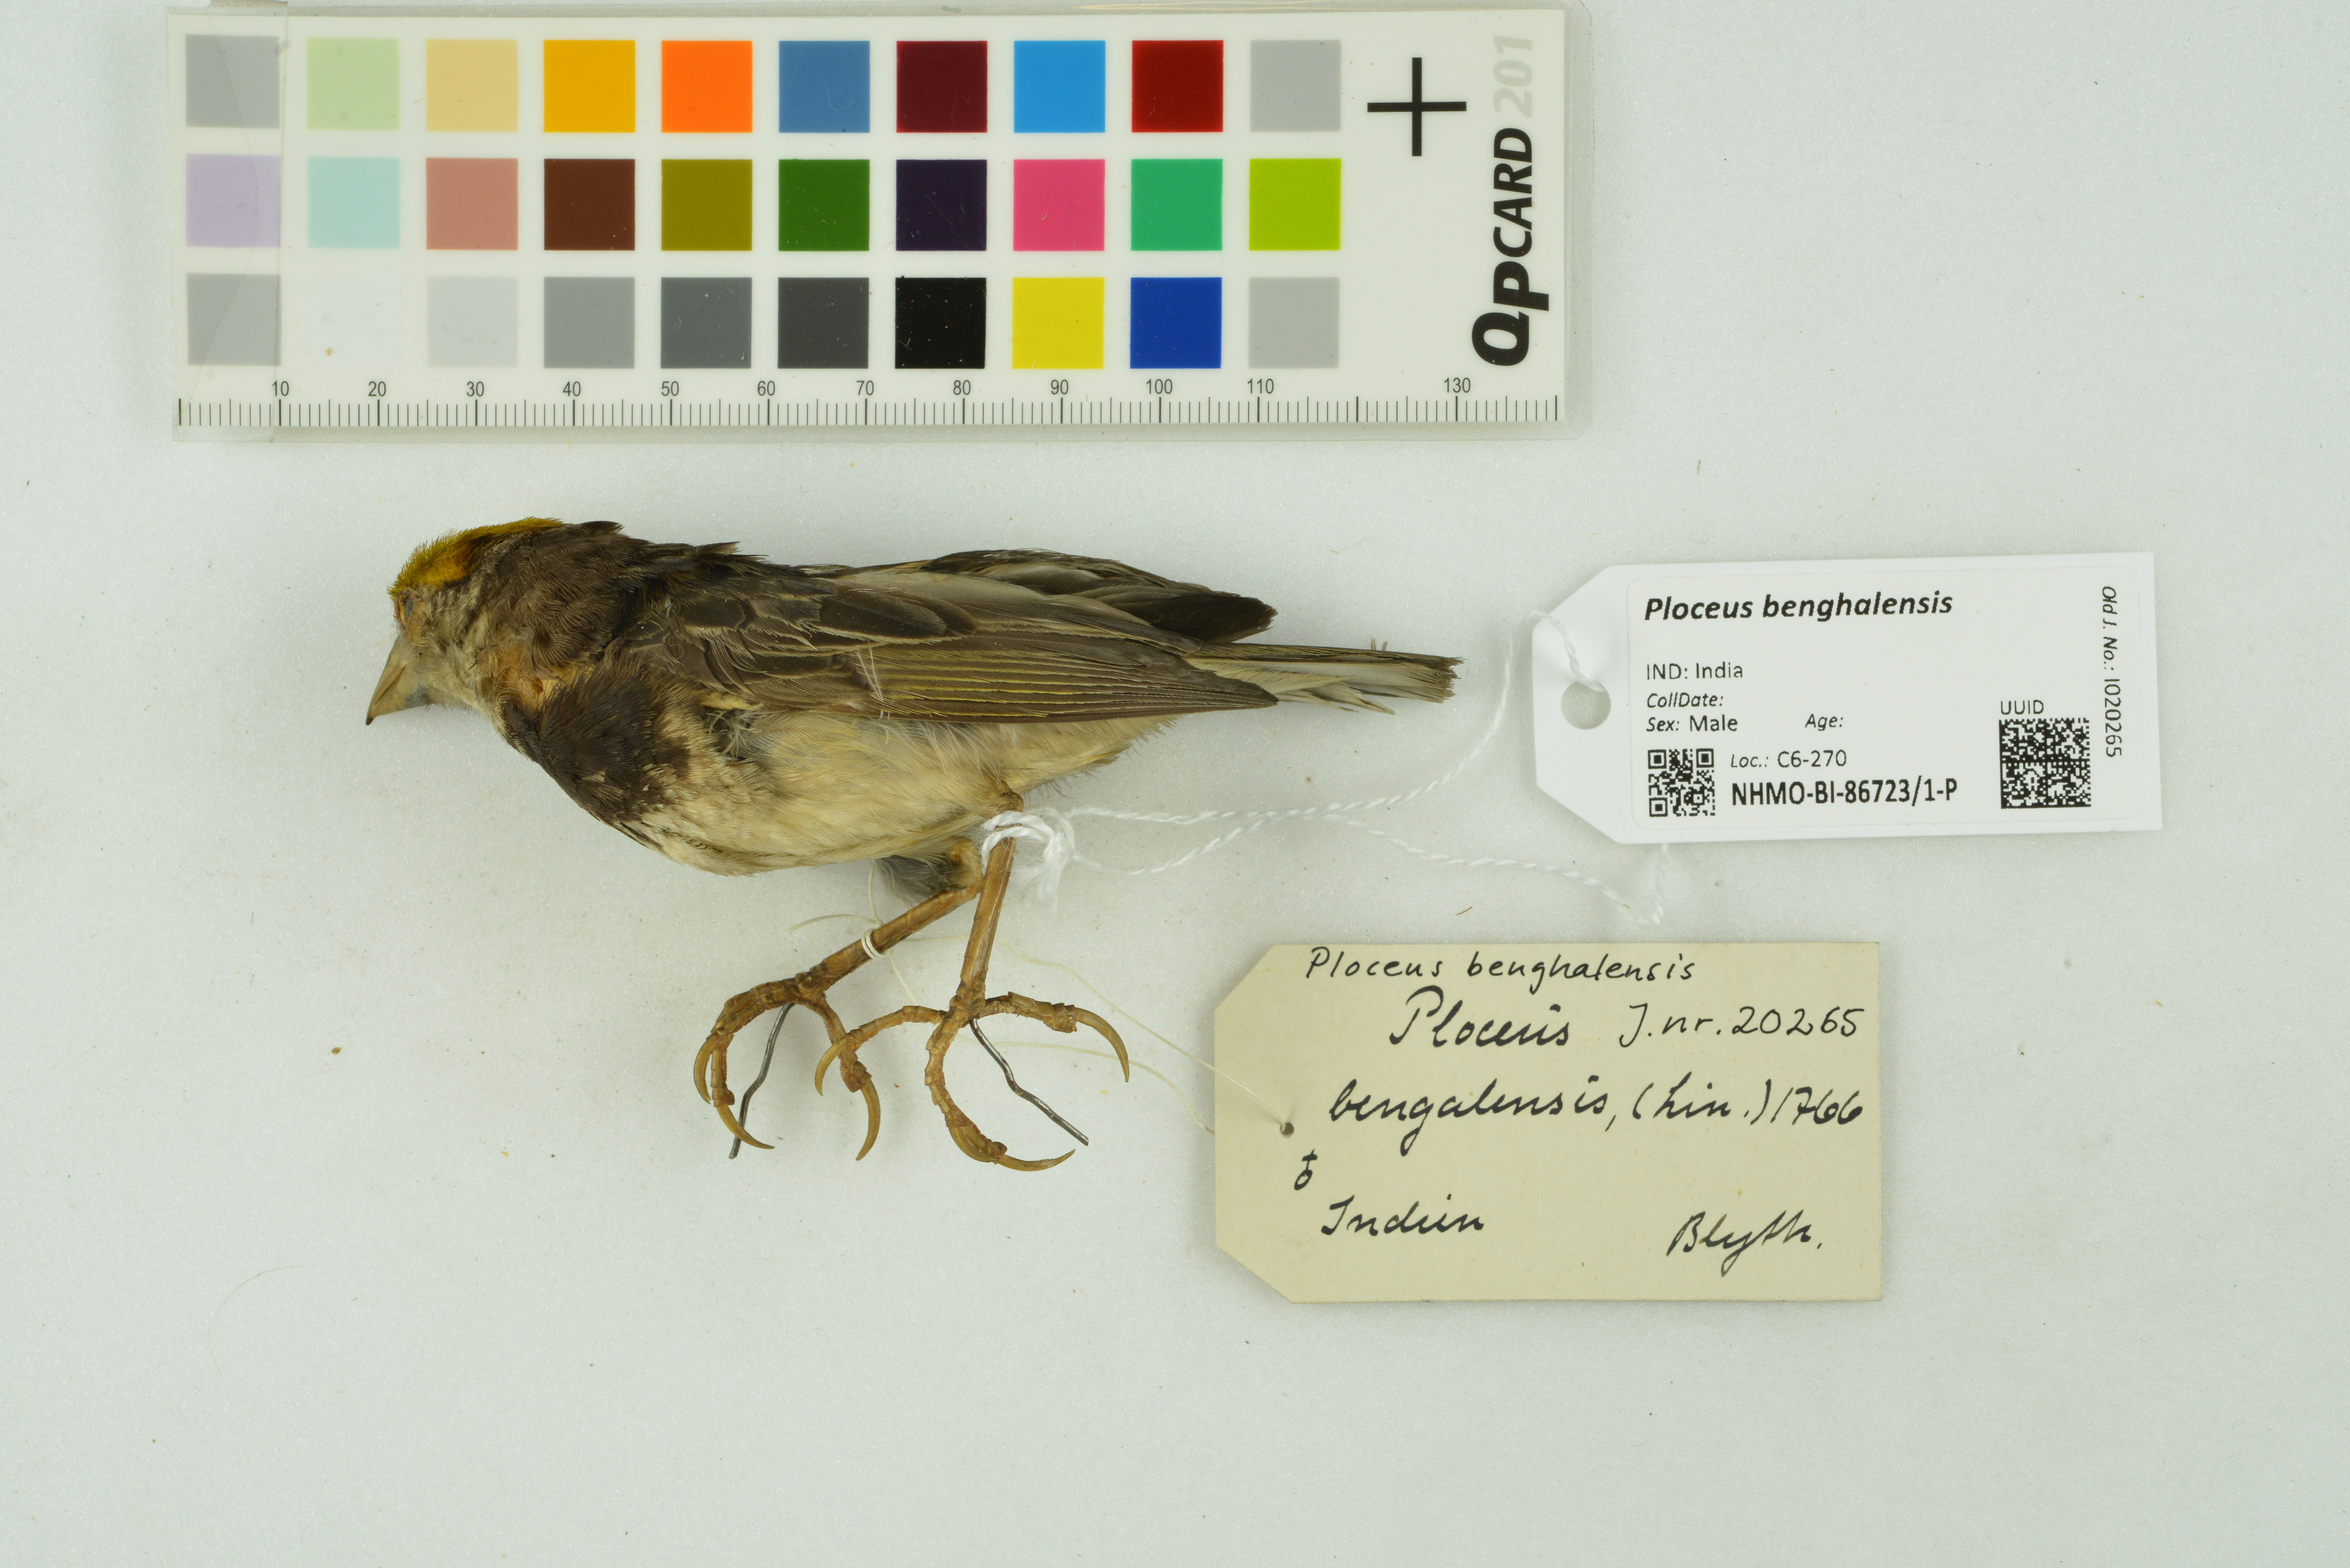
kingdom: Animalia
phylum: Chordata
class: Aves
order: Passeriformes
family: Ploceidae
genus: Ploceus
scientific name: Ploceus benghalensis
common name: Black-breasted weaver
